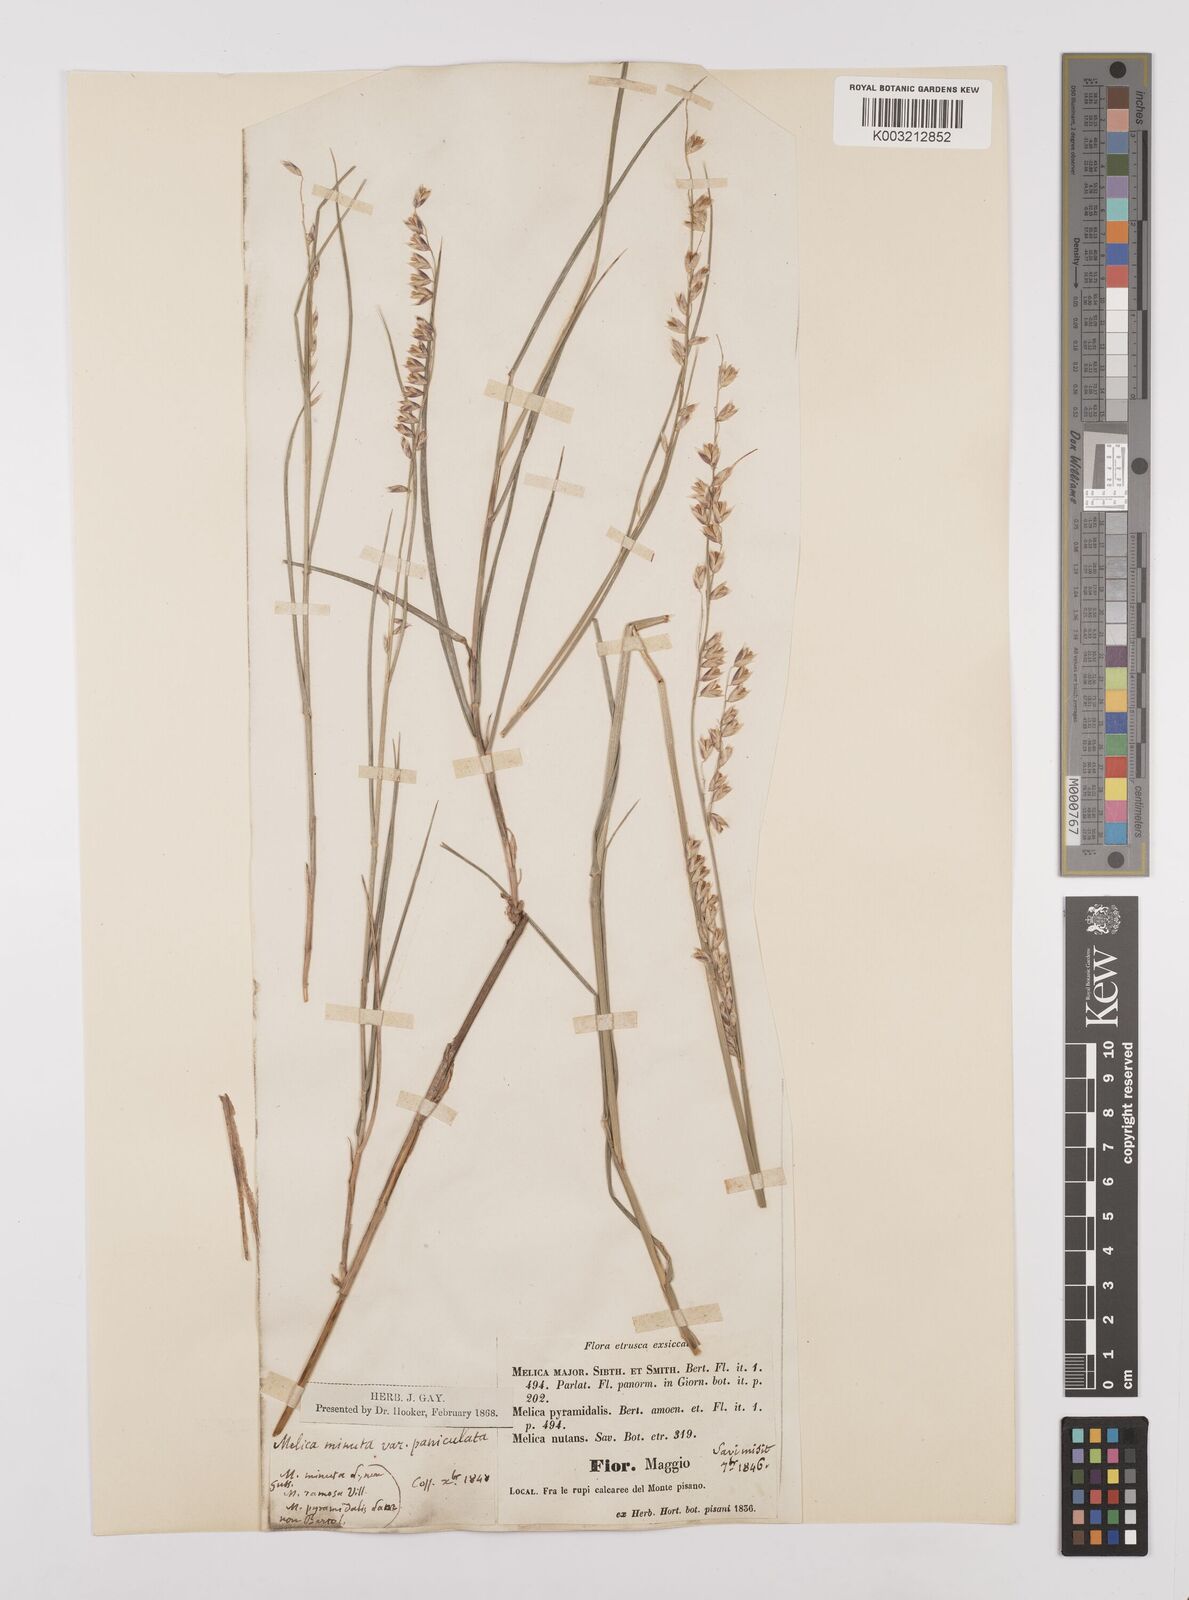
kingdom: Plantae
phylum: Tracheophyta
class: Liliopsida
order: Poales
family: Poaceae
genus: Melica
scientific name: Melica minuta
